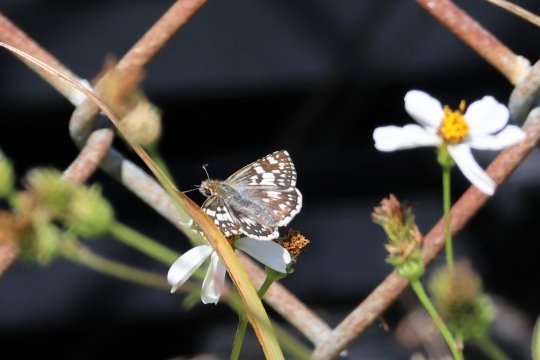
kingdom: Animalia
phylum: Arthropoda
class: Insecta
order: Lepidoptera
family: Hesperiidae
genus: Pyrgus
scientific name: Pyrgus communis
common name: White Checkered-Skipper
